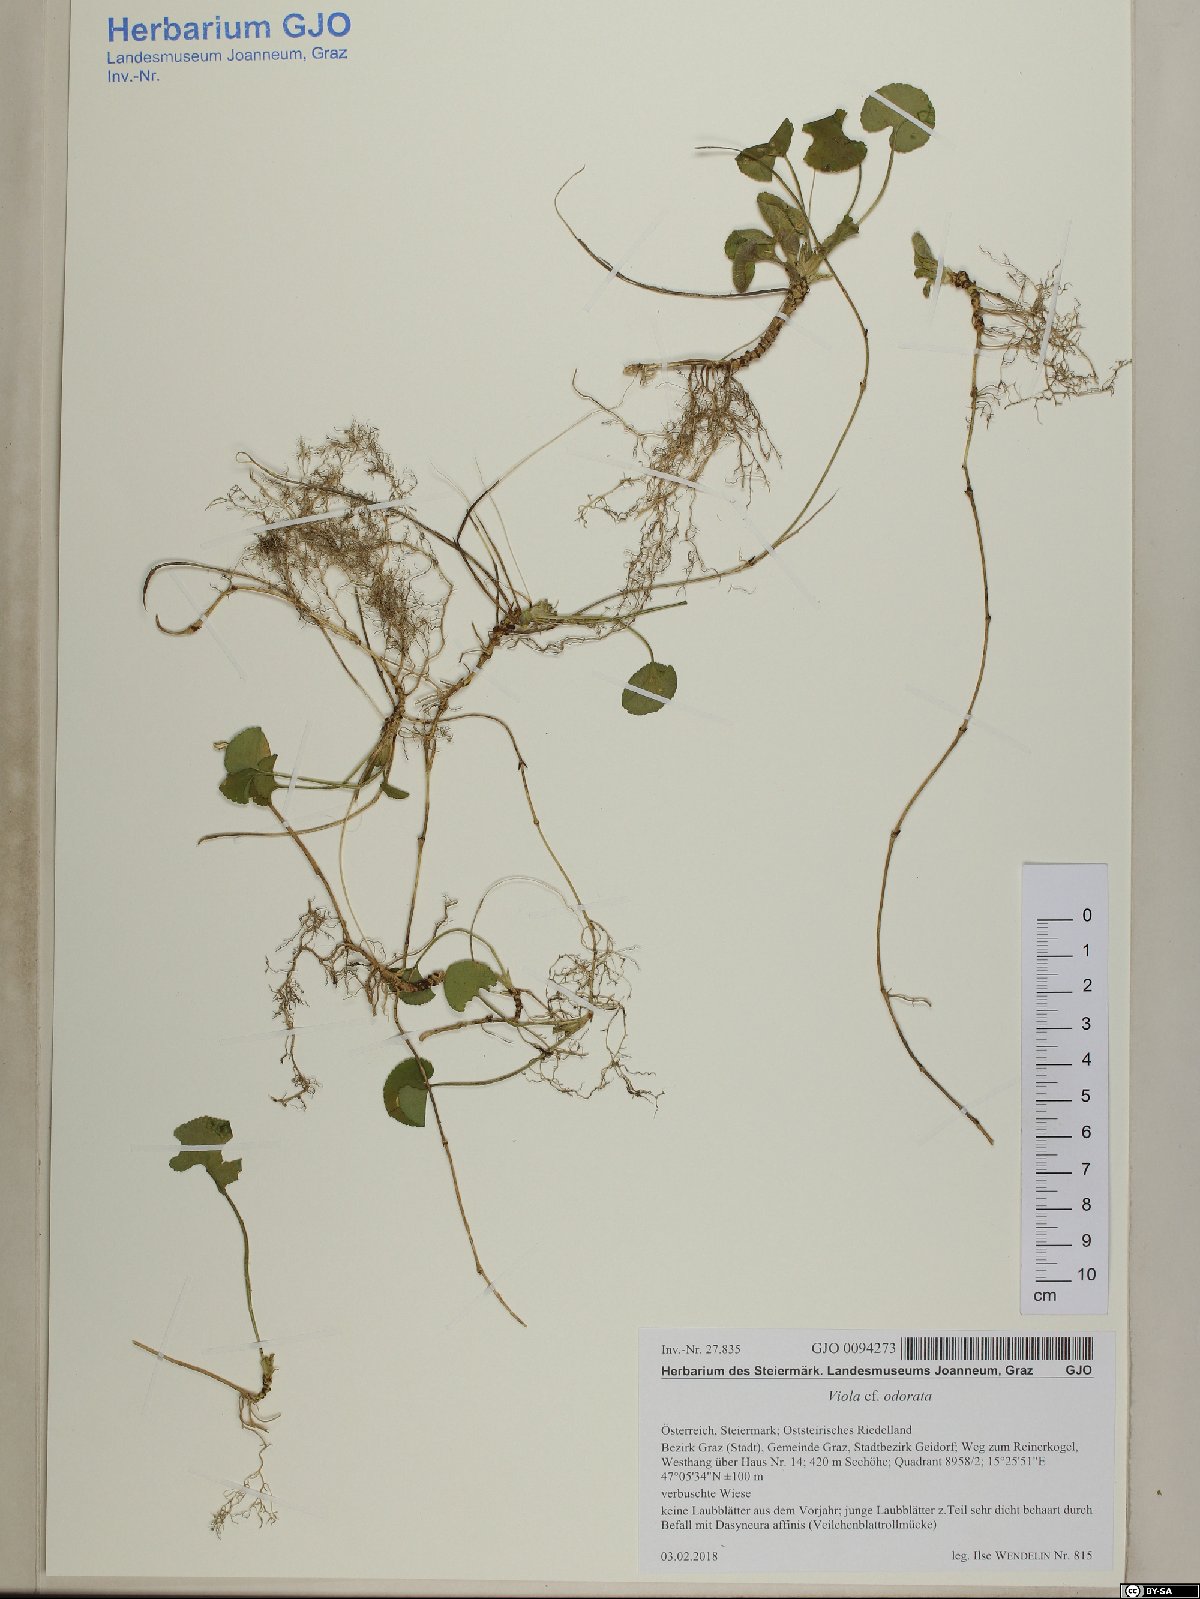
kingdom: Plantae
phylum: Tracheophyta
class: Magnoliopsida
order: Malpighiales
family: Violaceae
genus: Viola
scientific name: Viola odorata
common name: Sweet violet
